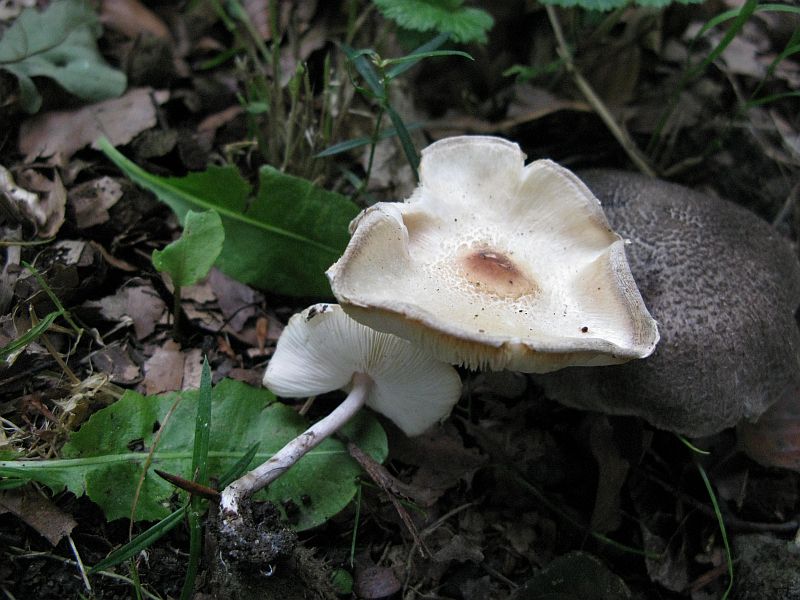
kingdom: Fungi
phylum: Basidiomycota
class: Agaricomycetes
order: Agaricales
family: Agaricaceae
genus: Lepiota
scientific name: Lepiota cristata
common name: stinkende parasolhat
